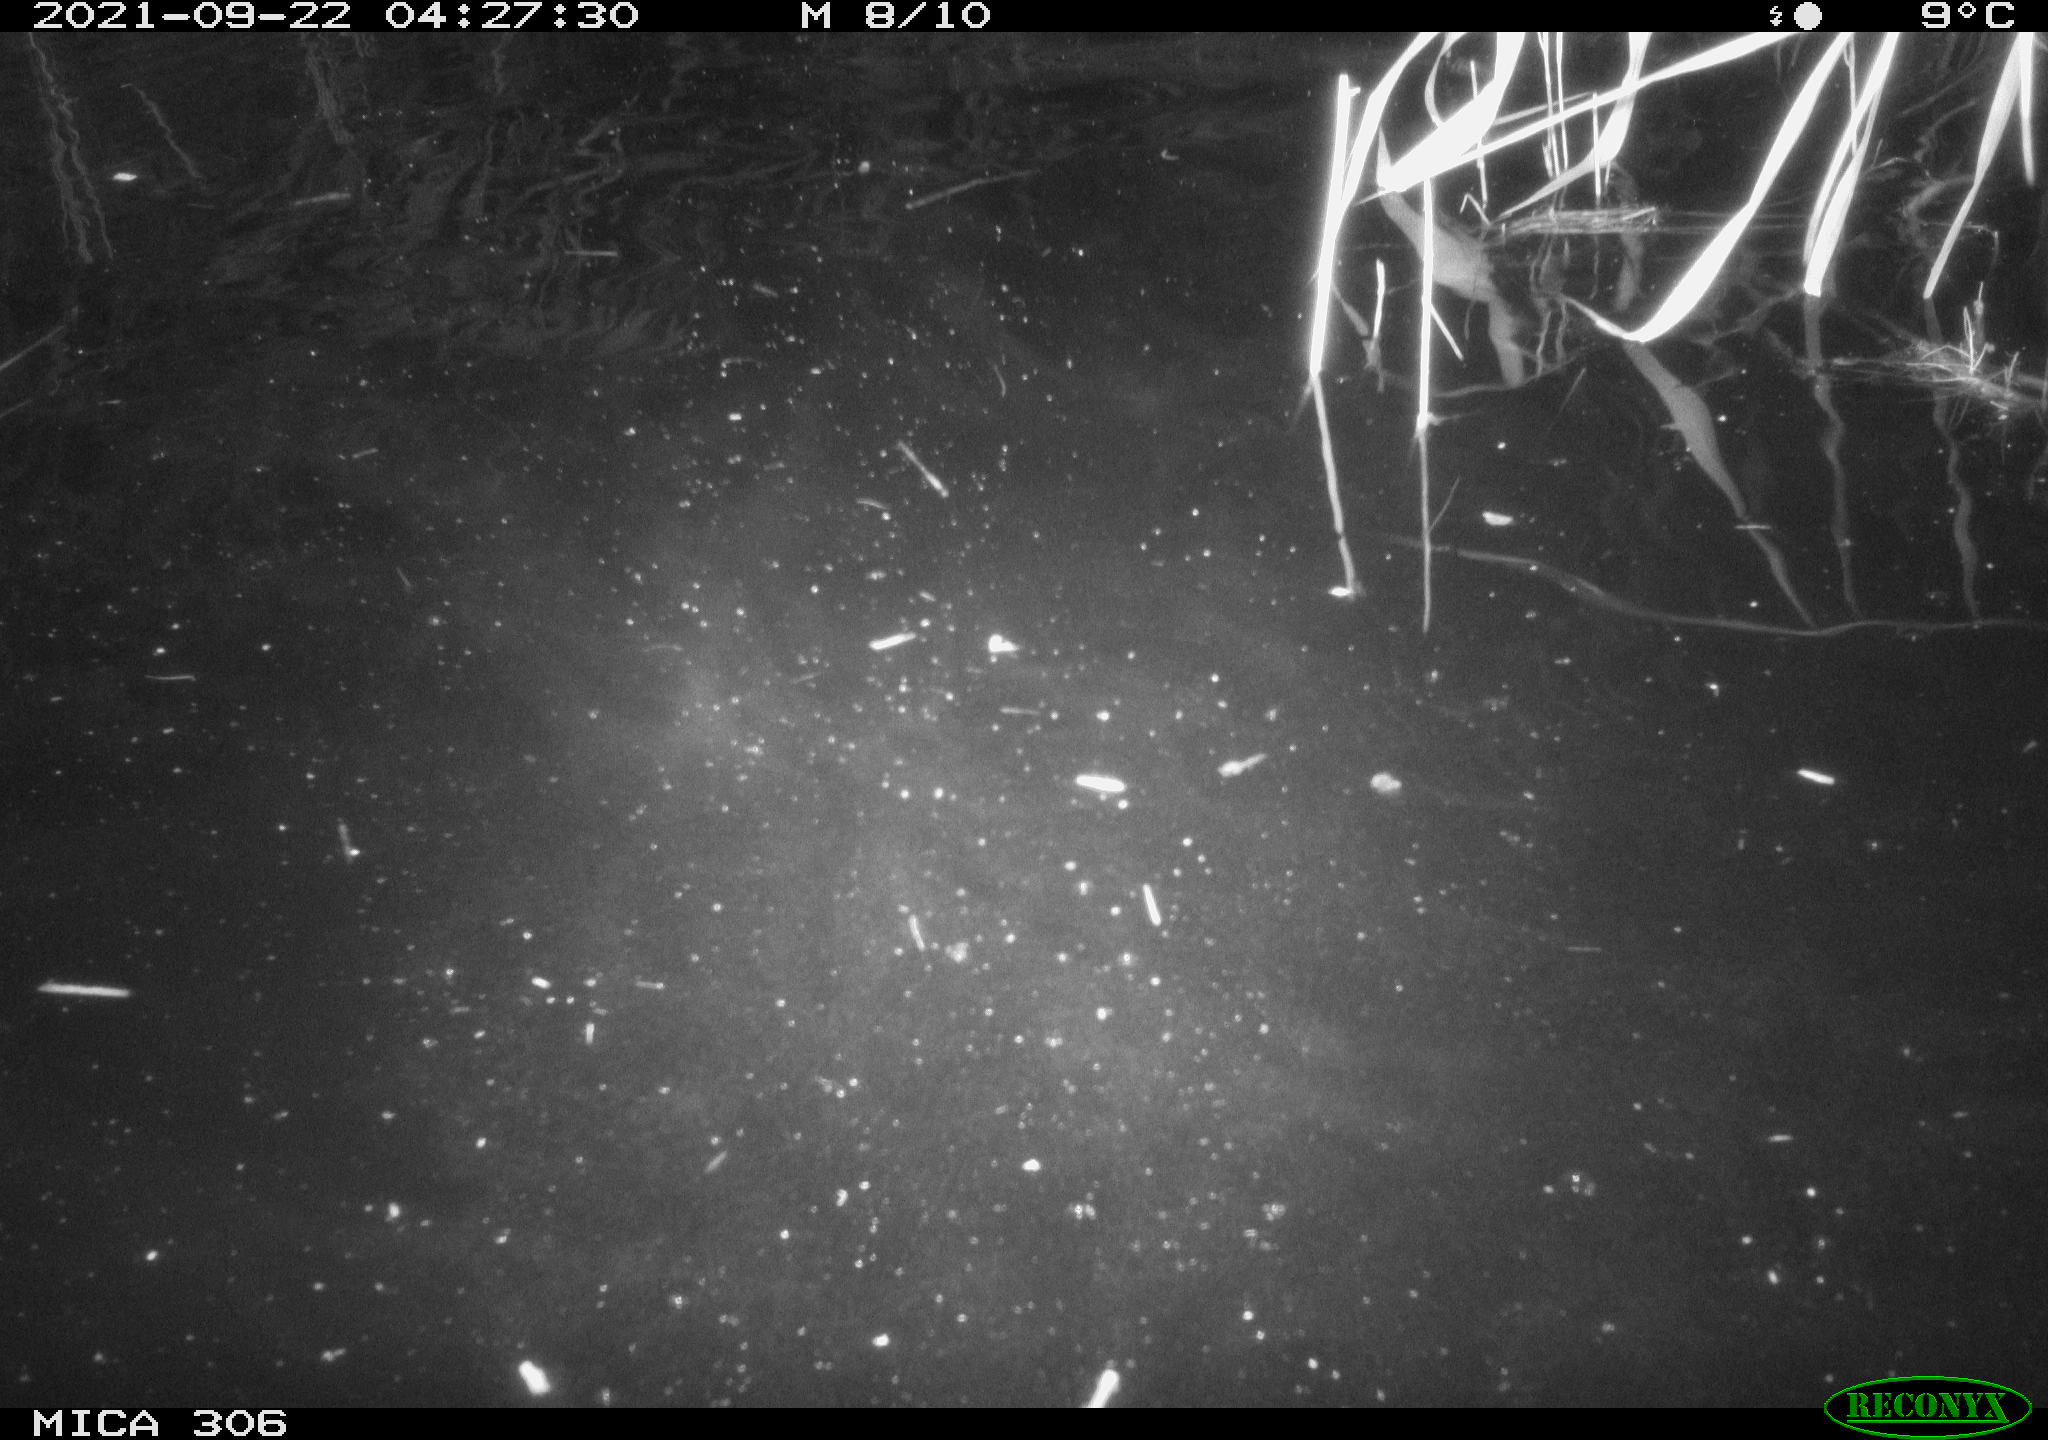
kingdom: Animalia
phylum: Chordata
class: Mammalia
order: Rodentia
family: Cricetidae
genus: Ondatra
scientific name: Ondatra zibethicus
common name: Muskrat
